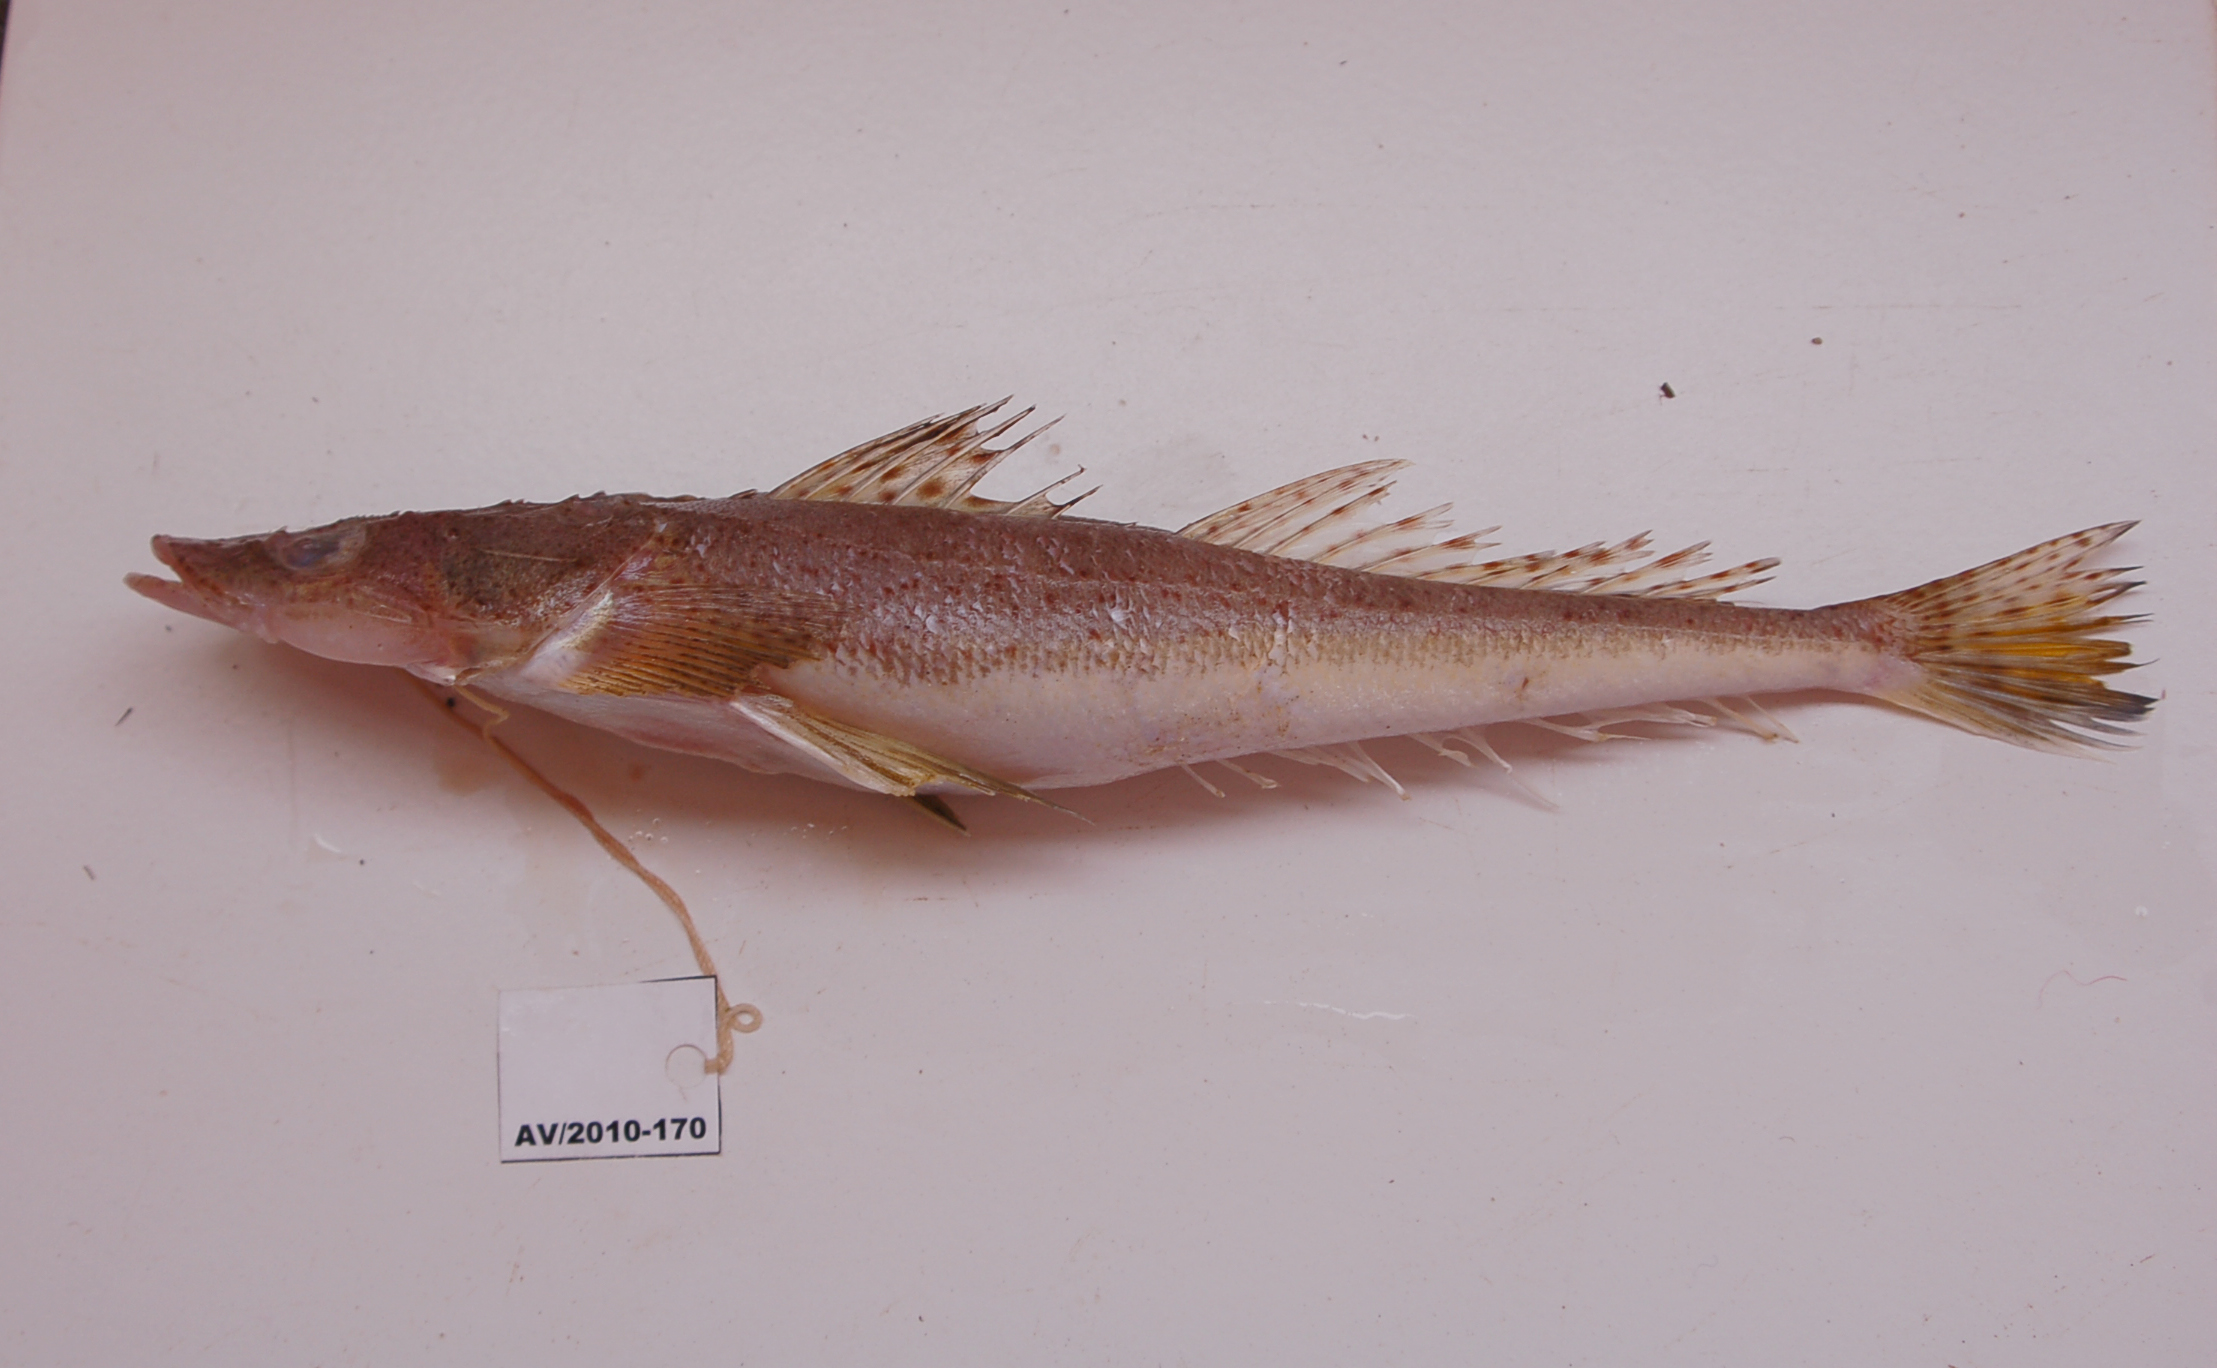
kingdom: Animalia
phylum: Chordata
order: Scorpaeniformes
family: Platycephalidae
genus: Cociella
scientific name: Cociella heemstrai
